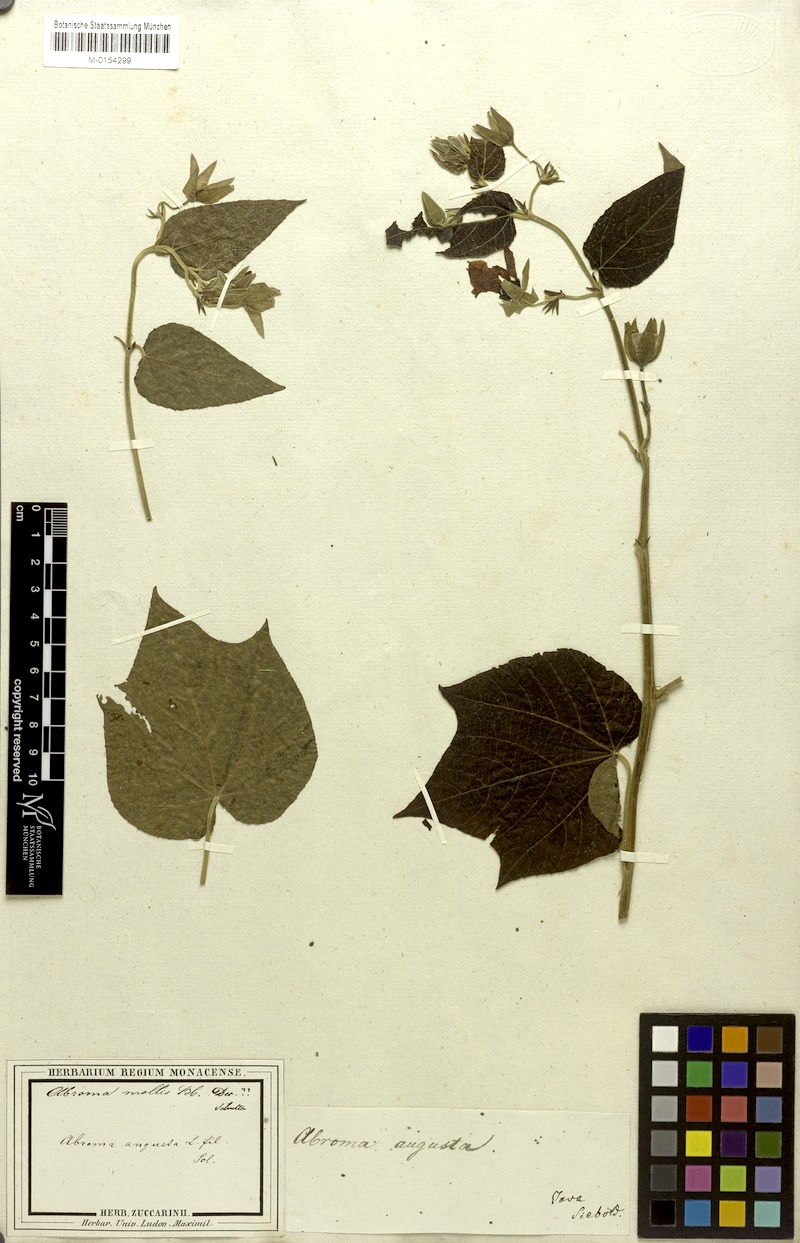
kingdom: Plantae
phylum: Tracheophyta
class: Magnoliopsida
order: Malvales
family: Malvaceae
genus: Abroma
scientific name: Abroma augustum
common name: Devil's-cotton
